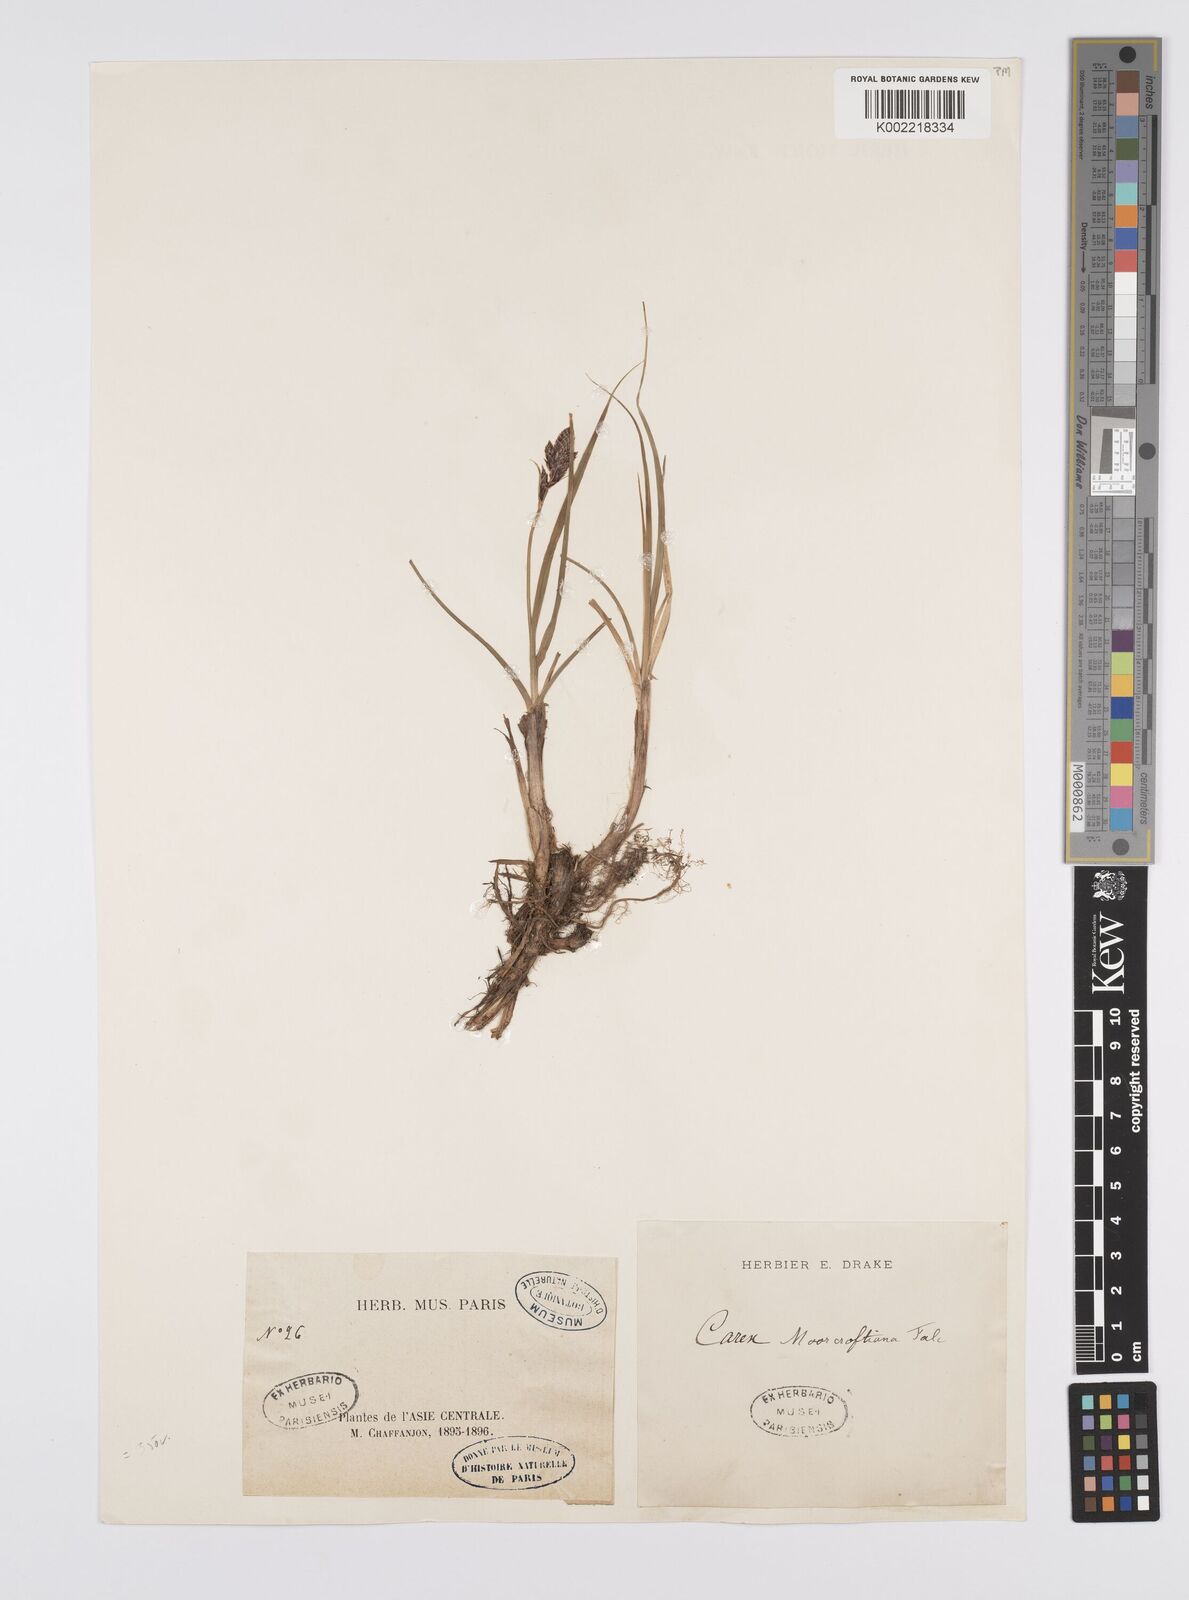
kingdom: Plantae
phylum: Tracheophyta
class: Liliopsida
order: Poales
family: Cyperaceae
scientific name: Cyperaceae
